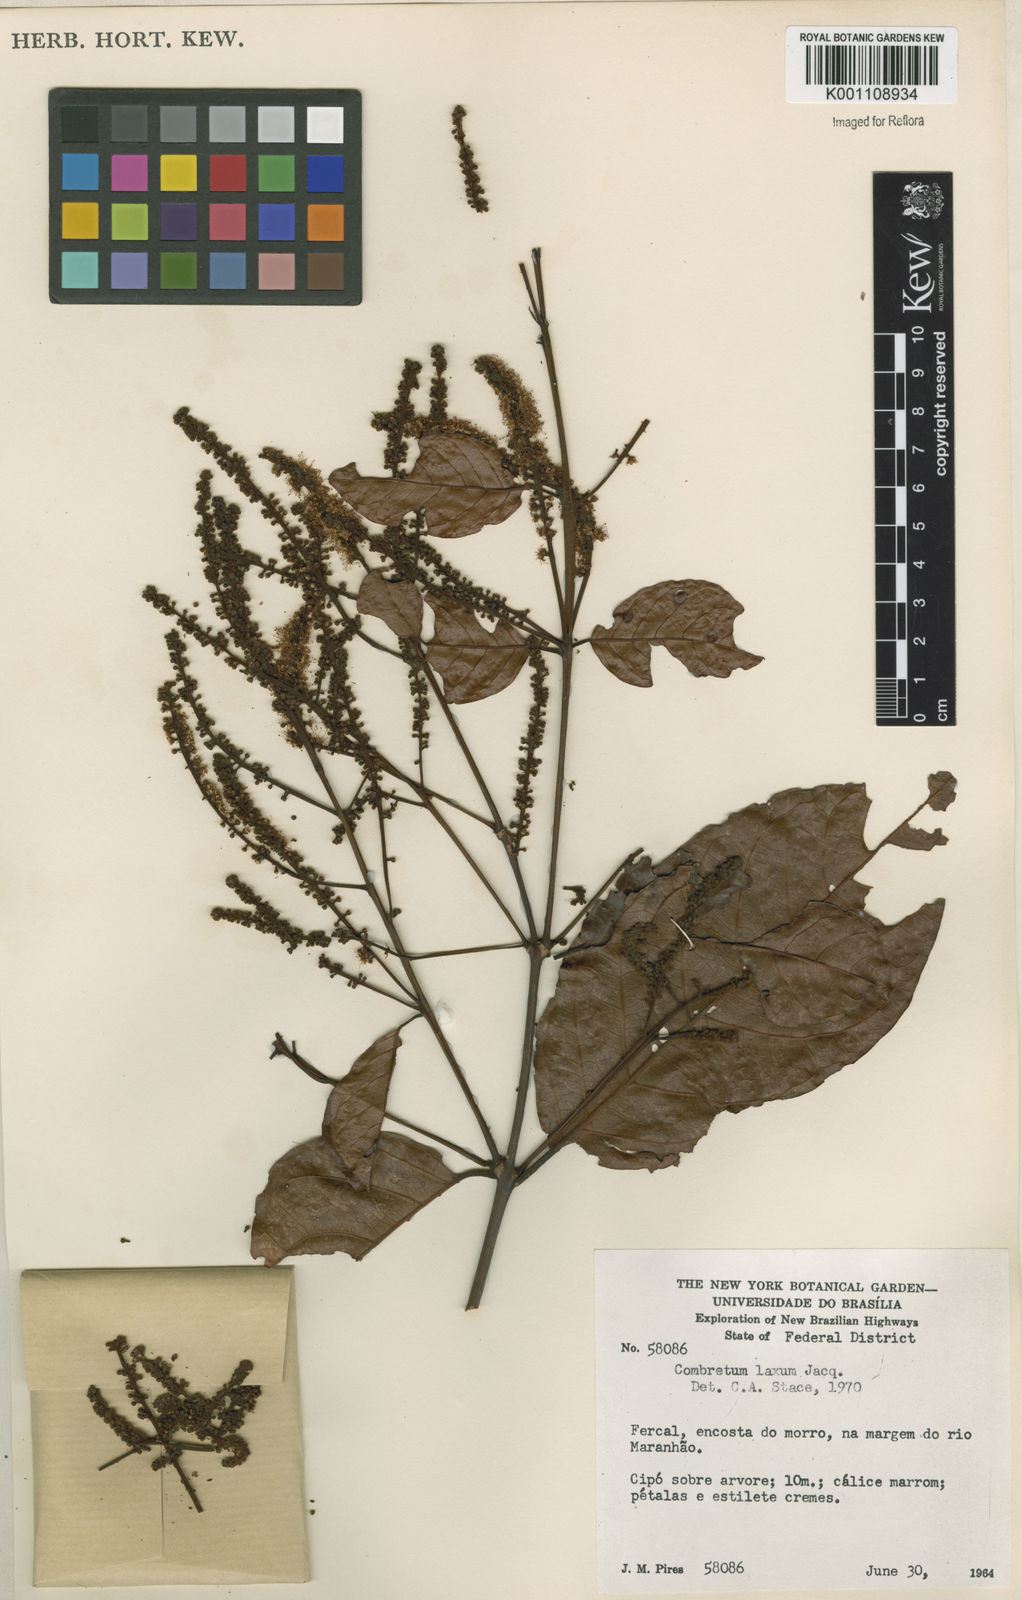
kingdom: Plantae
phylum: Tracheophyta
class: Magnoliopsida
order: Myrtales
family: Combretaceae
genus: Combretum
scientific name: Combretum laxum
